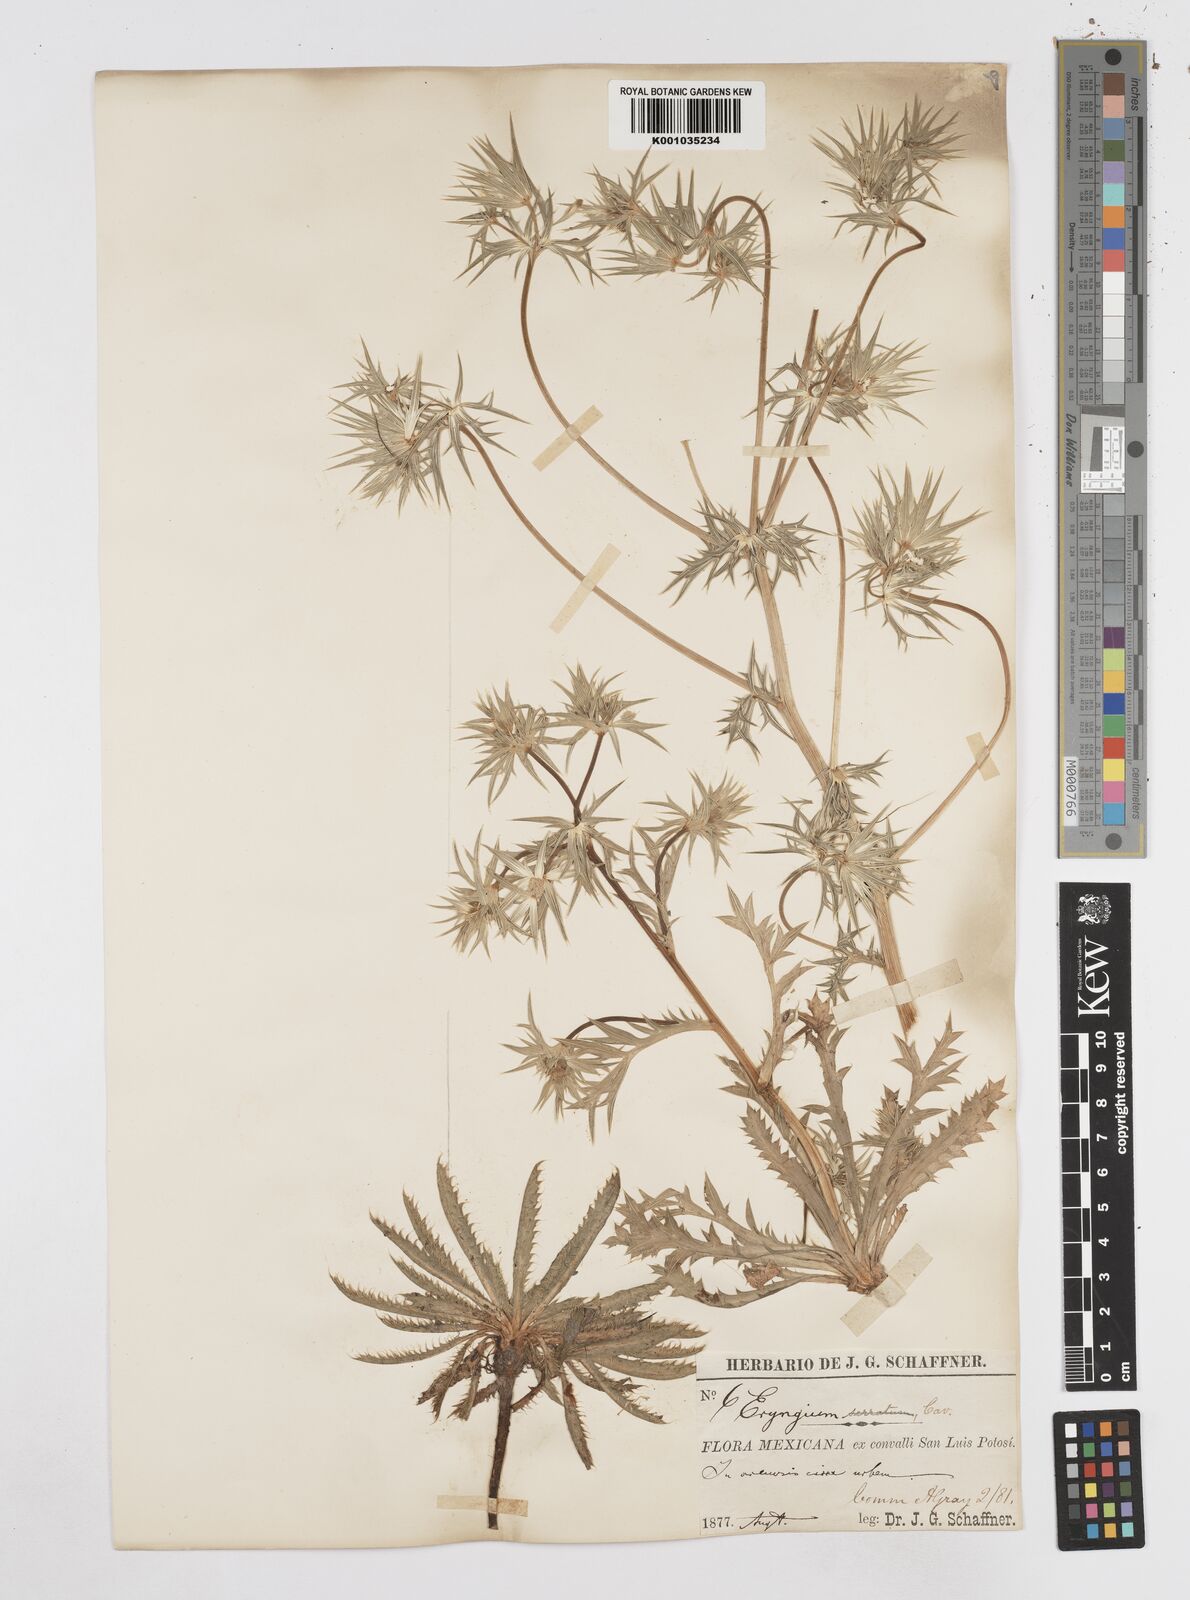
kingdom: Plantae
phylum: Tracheophyta
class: Magnoliopsida
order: Apiales
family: Apiaceae
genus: Eryngium
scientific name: Eryngium heterophyllum
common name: Mexican thistle
